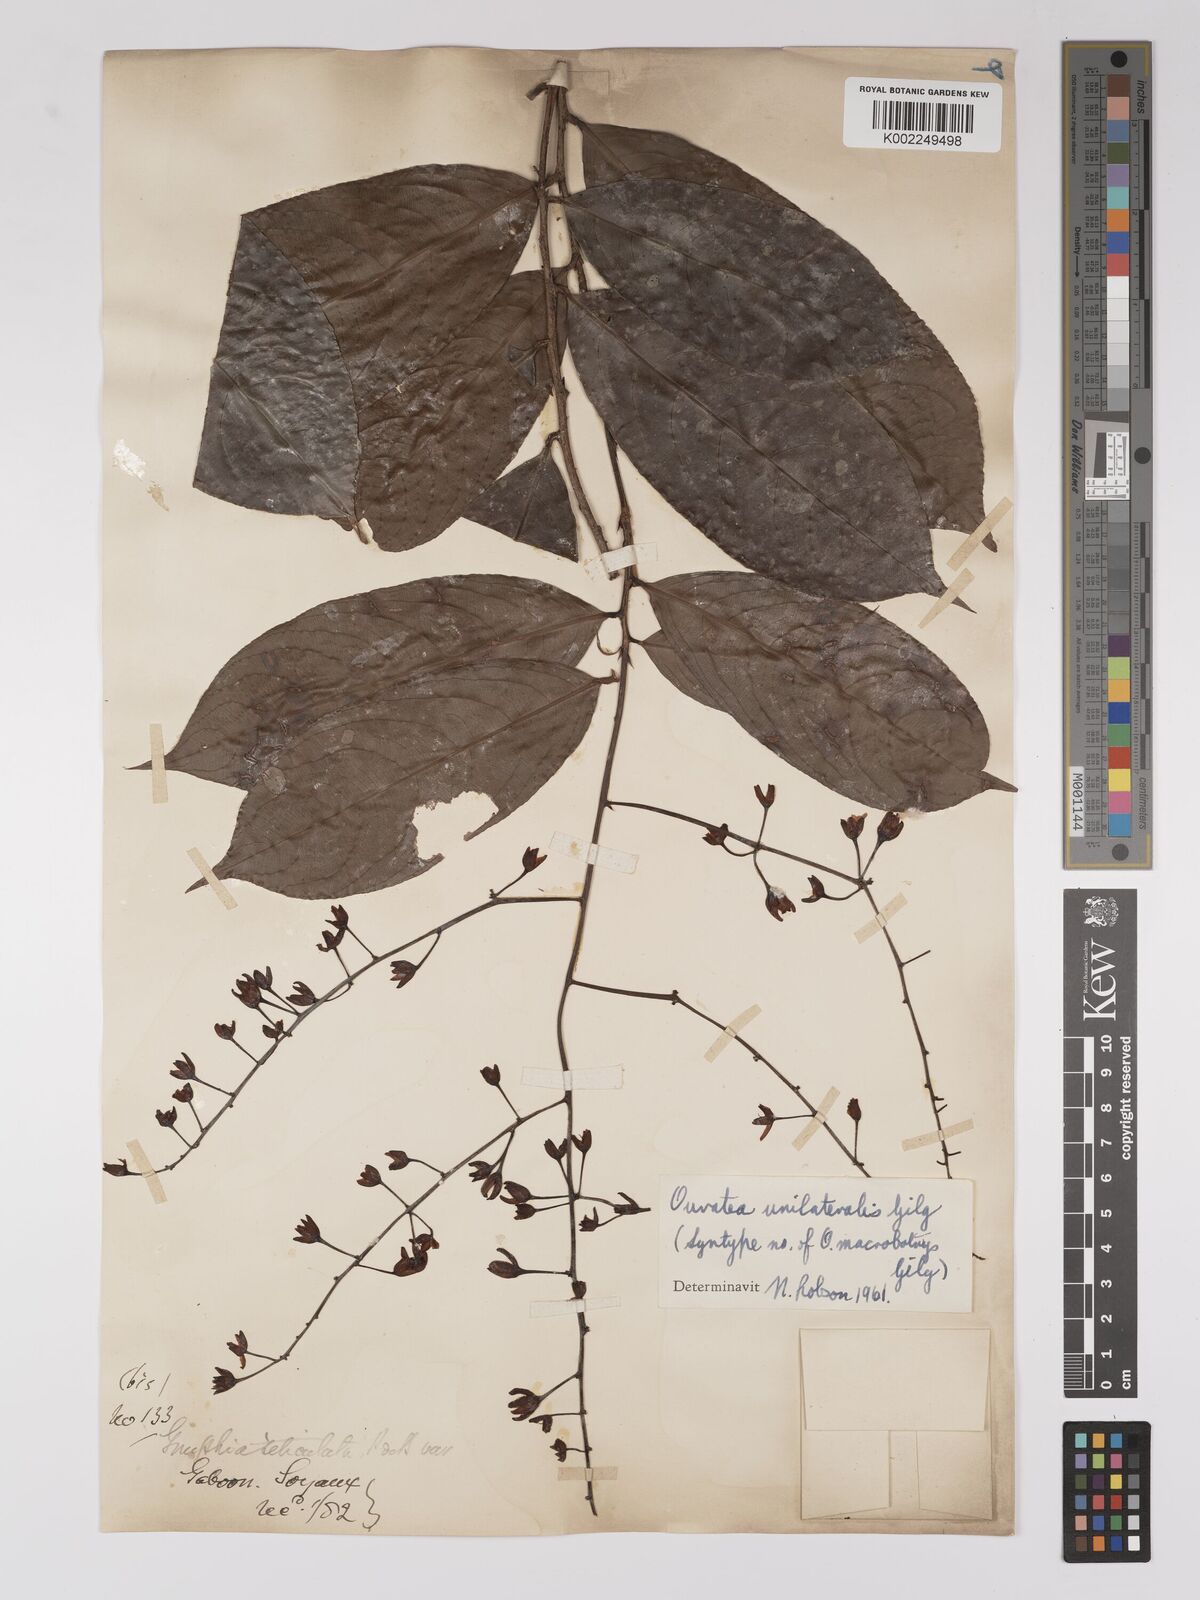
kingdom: Plantae
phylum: Tracheophyta
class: Magnoliopsida
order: Malpighiales
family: Ochnaceae
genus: Campylospermum
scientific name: Campylospermum laxiflorum
